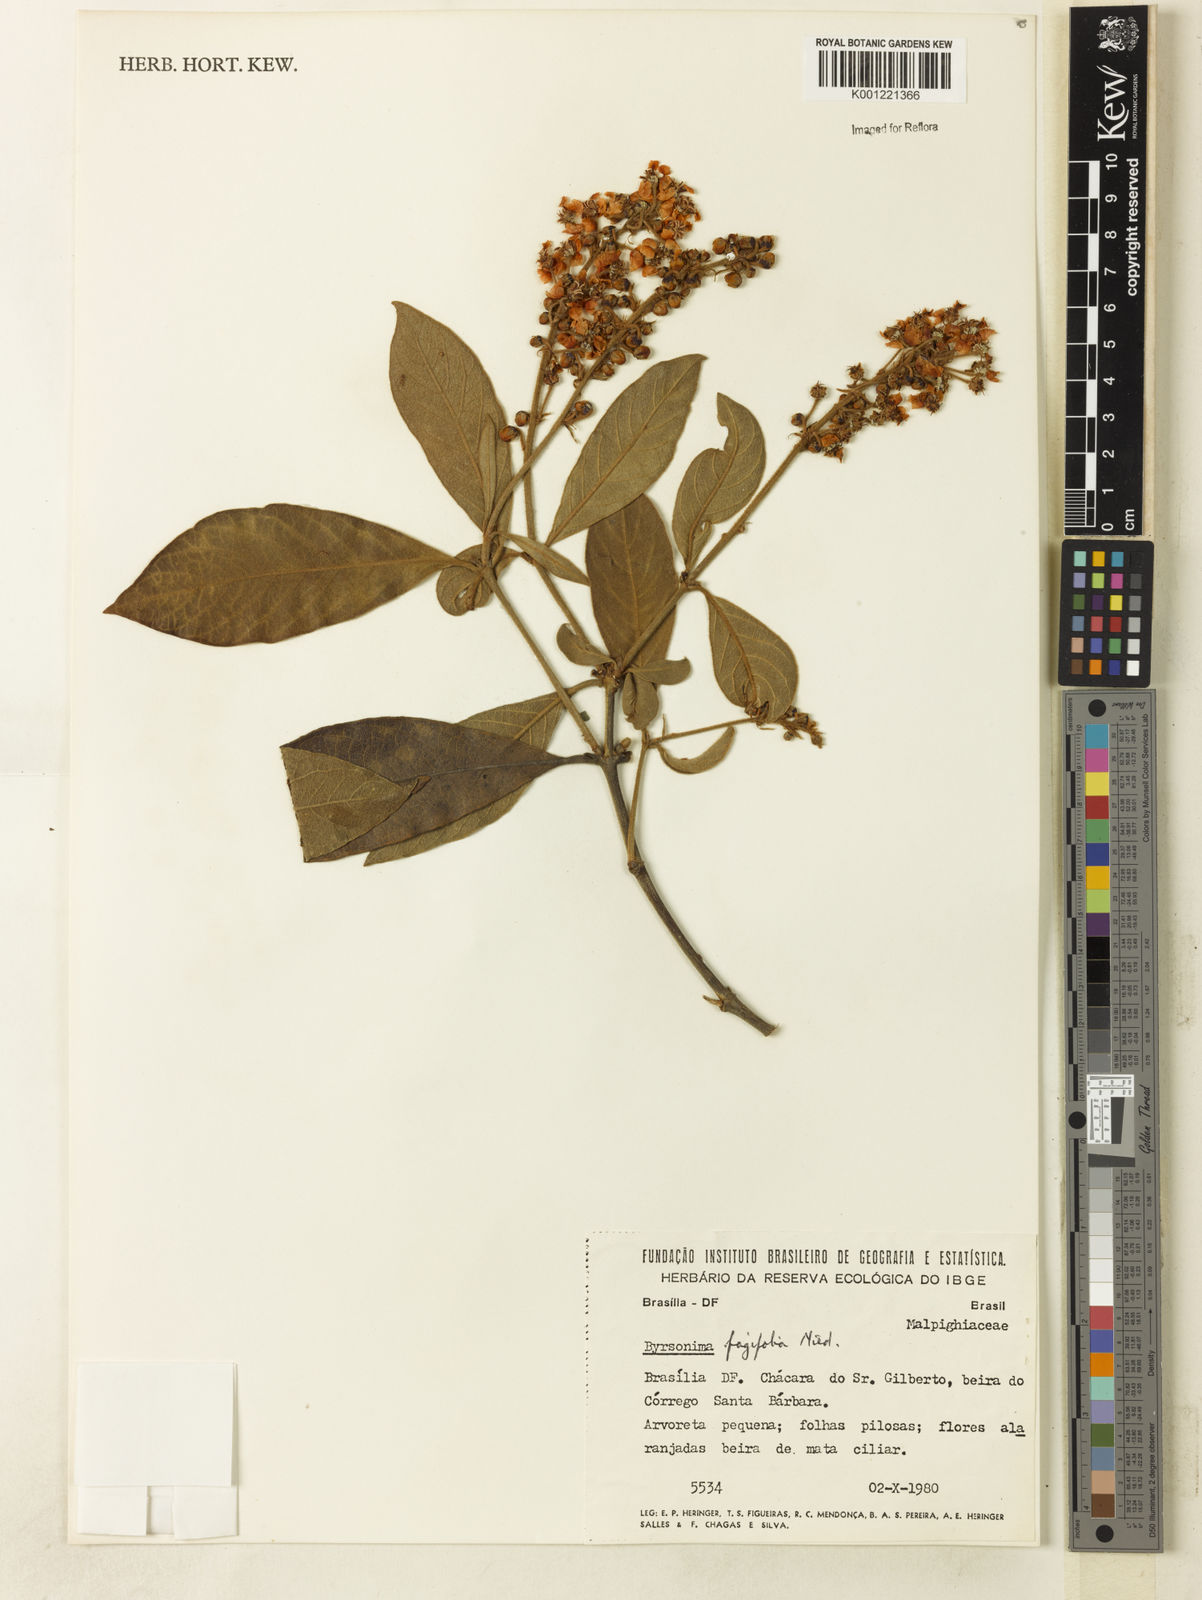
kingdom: Plantae
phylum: Tracheophyta
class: Magnoliopsida
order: Malpighiales
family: Malpighiaceae
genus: Byrsonima
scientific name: Byrsonima crassifolia
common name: Golden spoon
